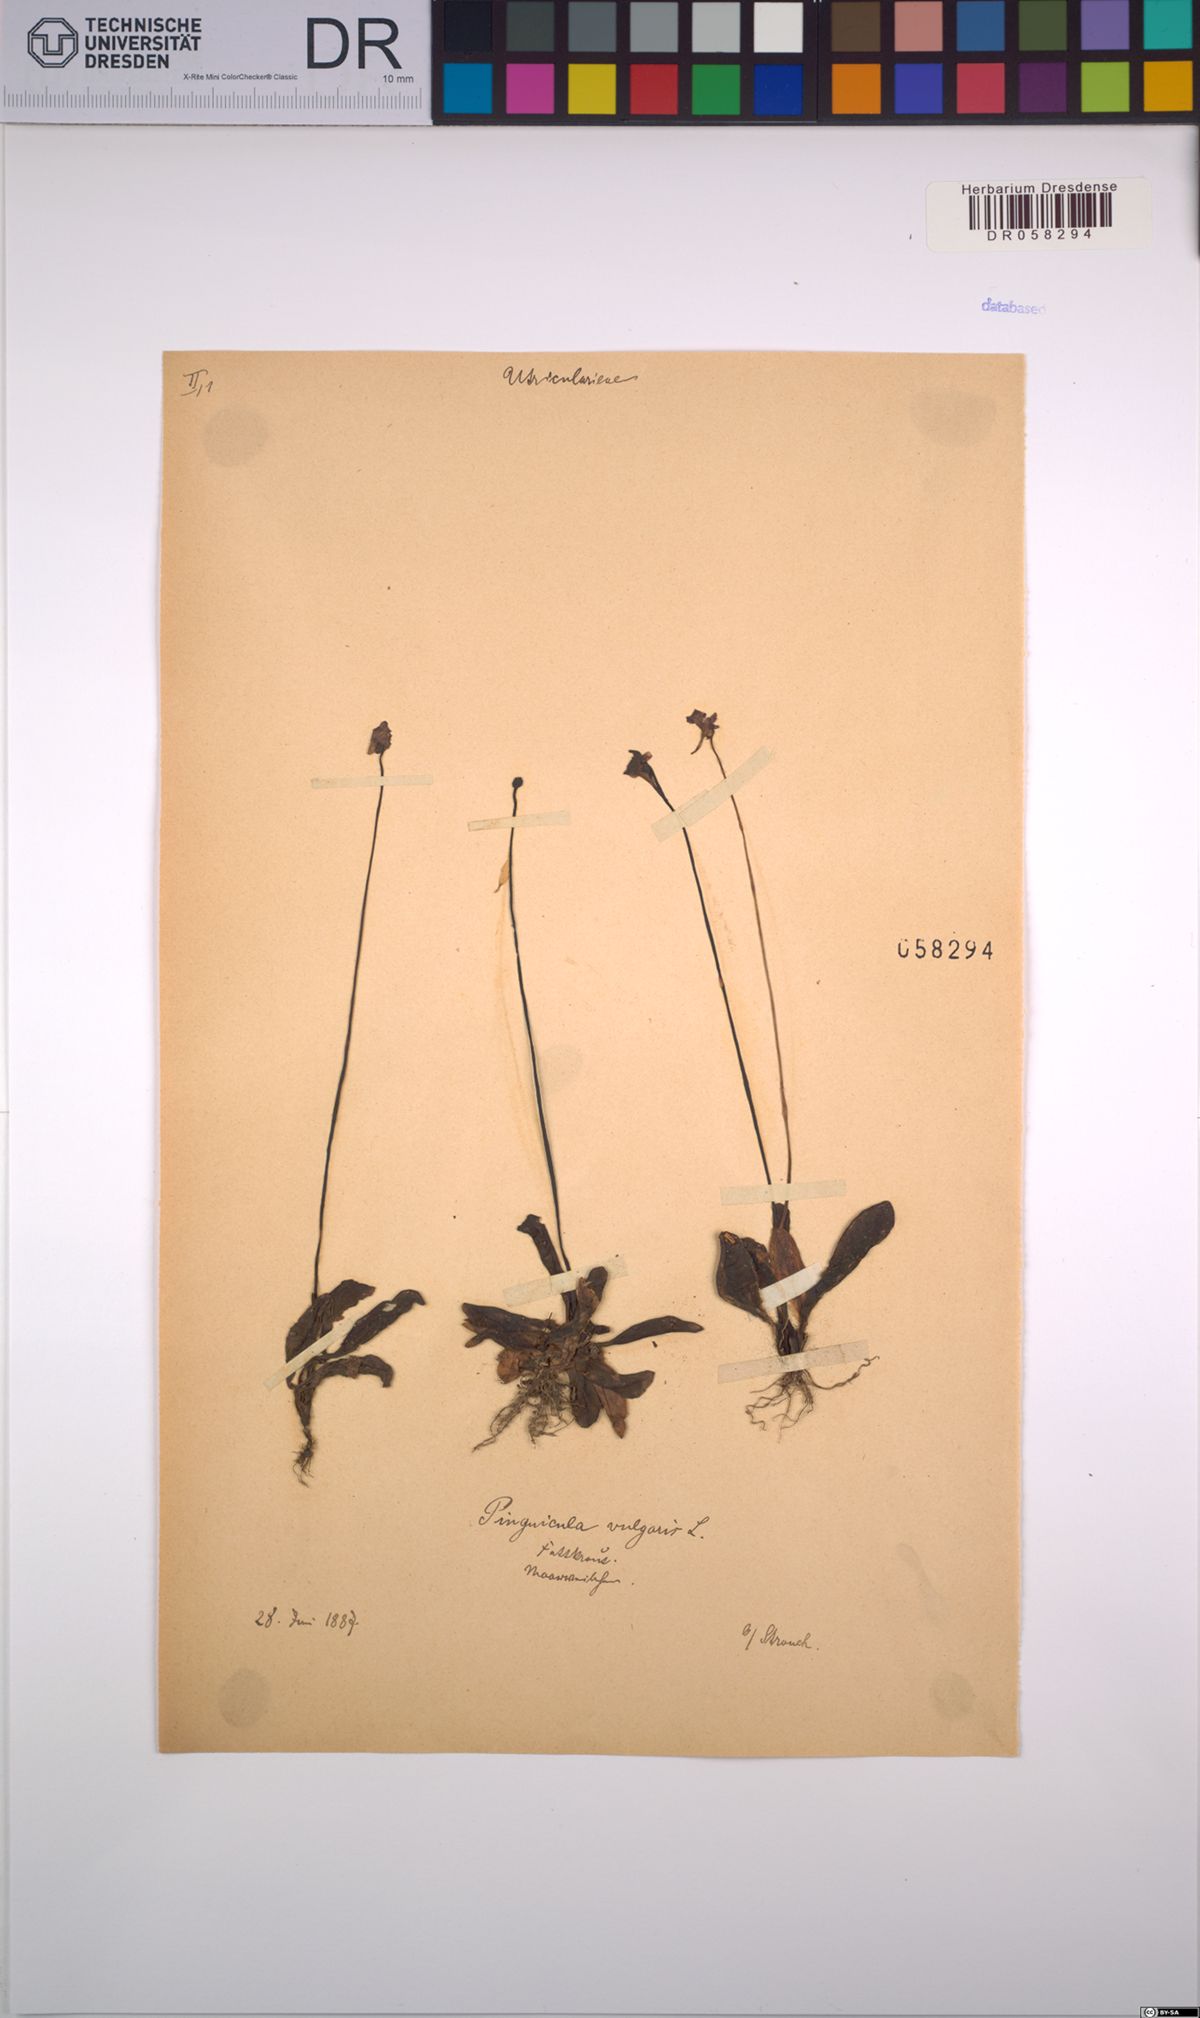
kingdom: Plantae
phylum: Tracheophyta
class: Magnoliopsida
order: Lamiales
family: Lentibulariaceae
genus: Pinguicula
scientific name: Pinguicula vulgaris
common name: Common butterwort
